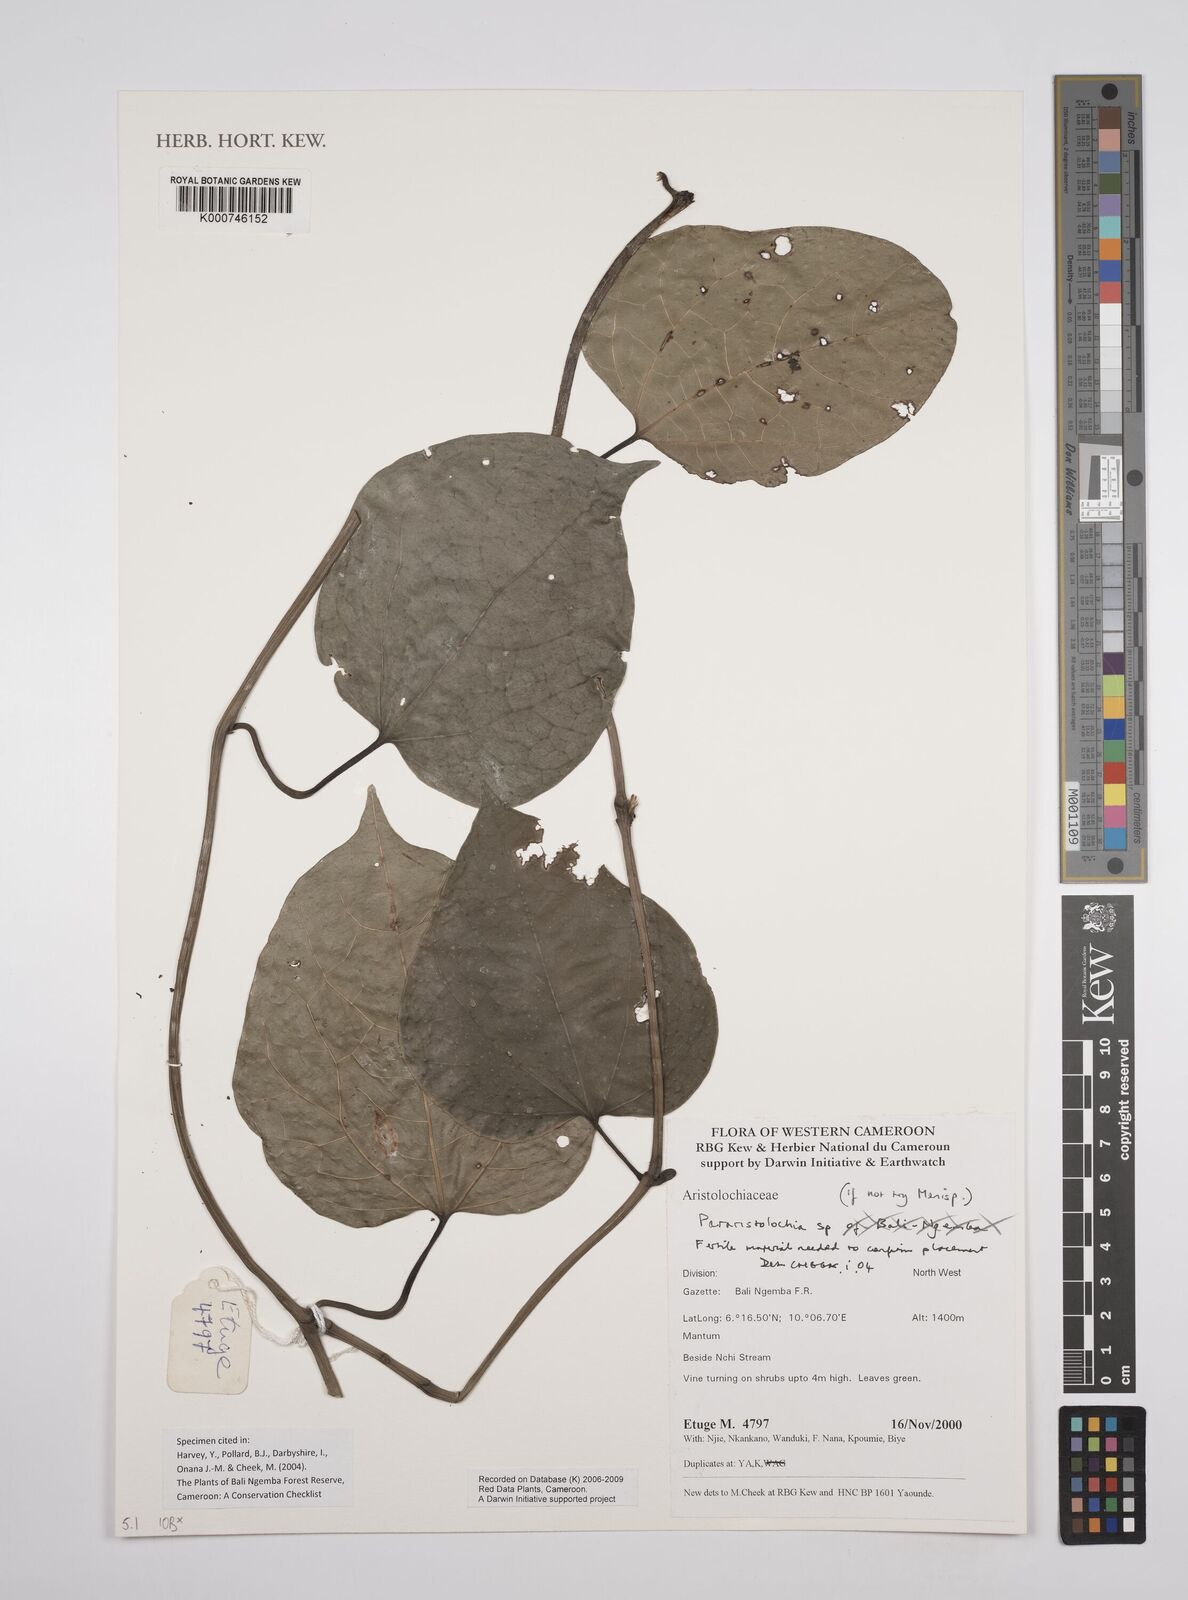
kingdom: Plantae
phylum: Tracheophyta
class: Magnoliopsida
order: Piperales
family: Aristolochiaceae
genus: Aristolochia
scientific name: Aristolochia
